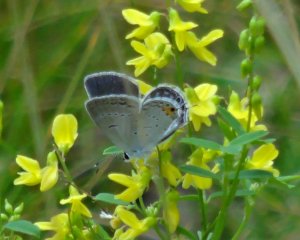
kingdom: Animalia
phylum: Arthropoda
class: Insecta
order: Lepidoptera
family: Lycaenidae
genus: Elkalyce
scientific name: Elkalyce comyntas
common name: Eastern Tailed-Blue
